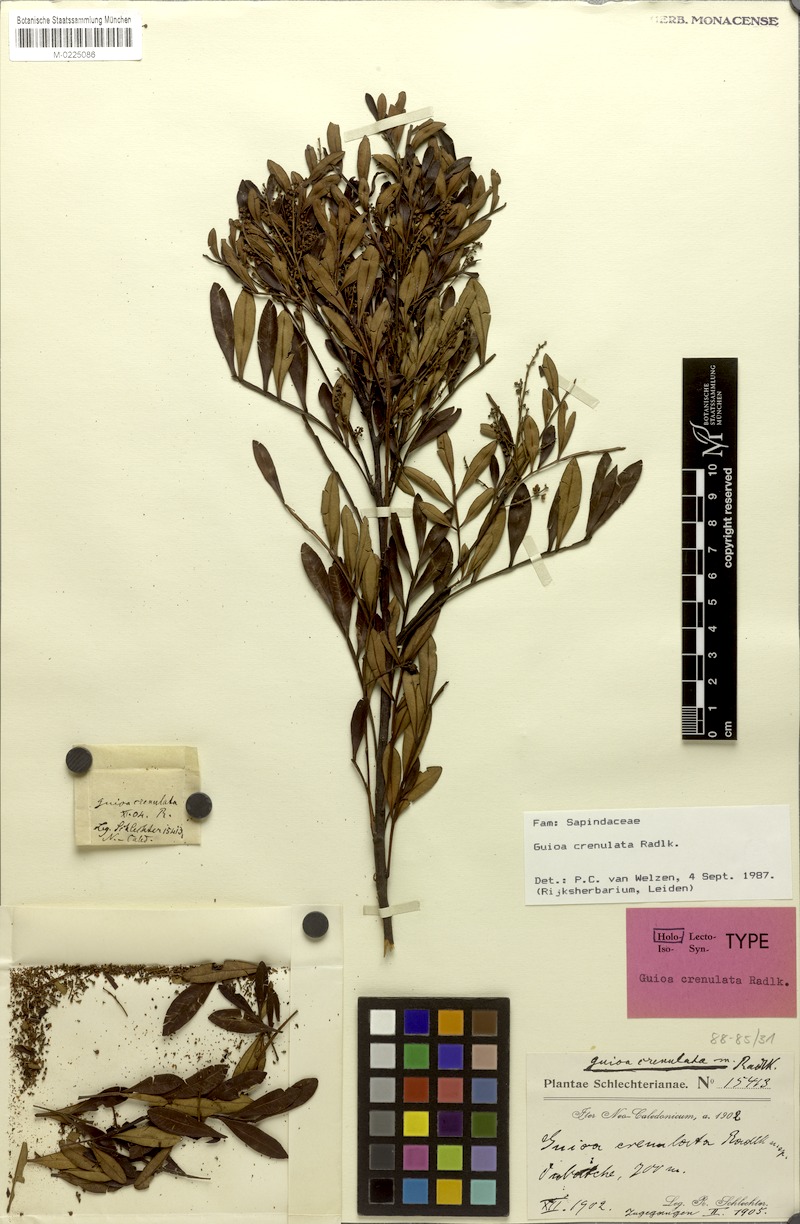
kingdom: Plantae
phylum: Tracheophyta
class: Magnoliopsida
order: Sapindales
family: Sapindaceae
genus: Guioa
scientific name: Guioa crenulata
